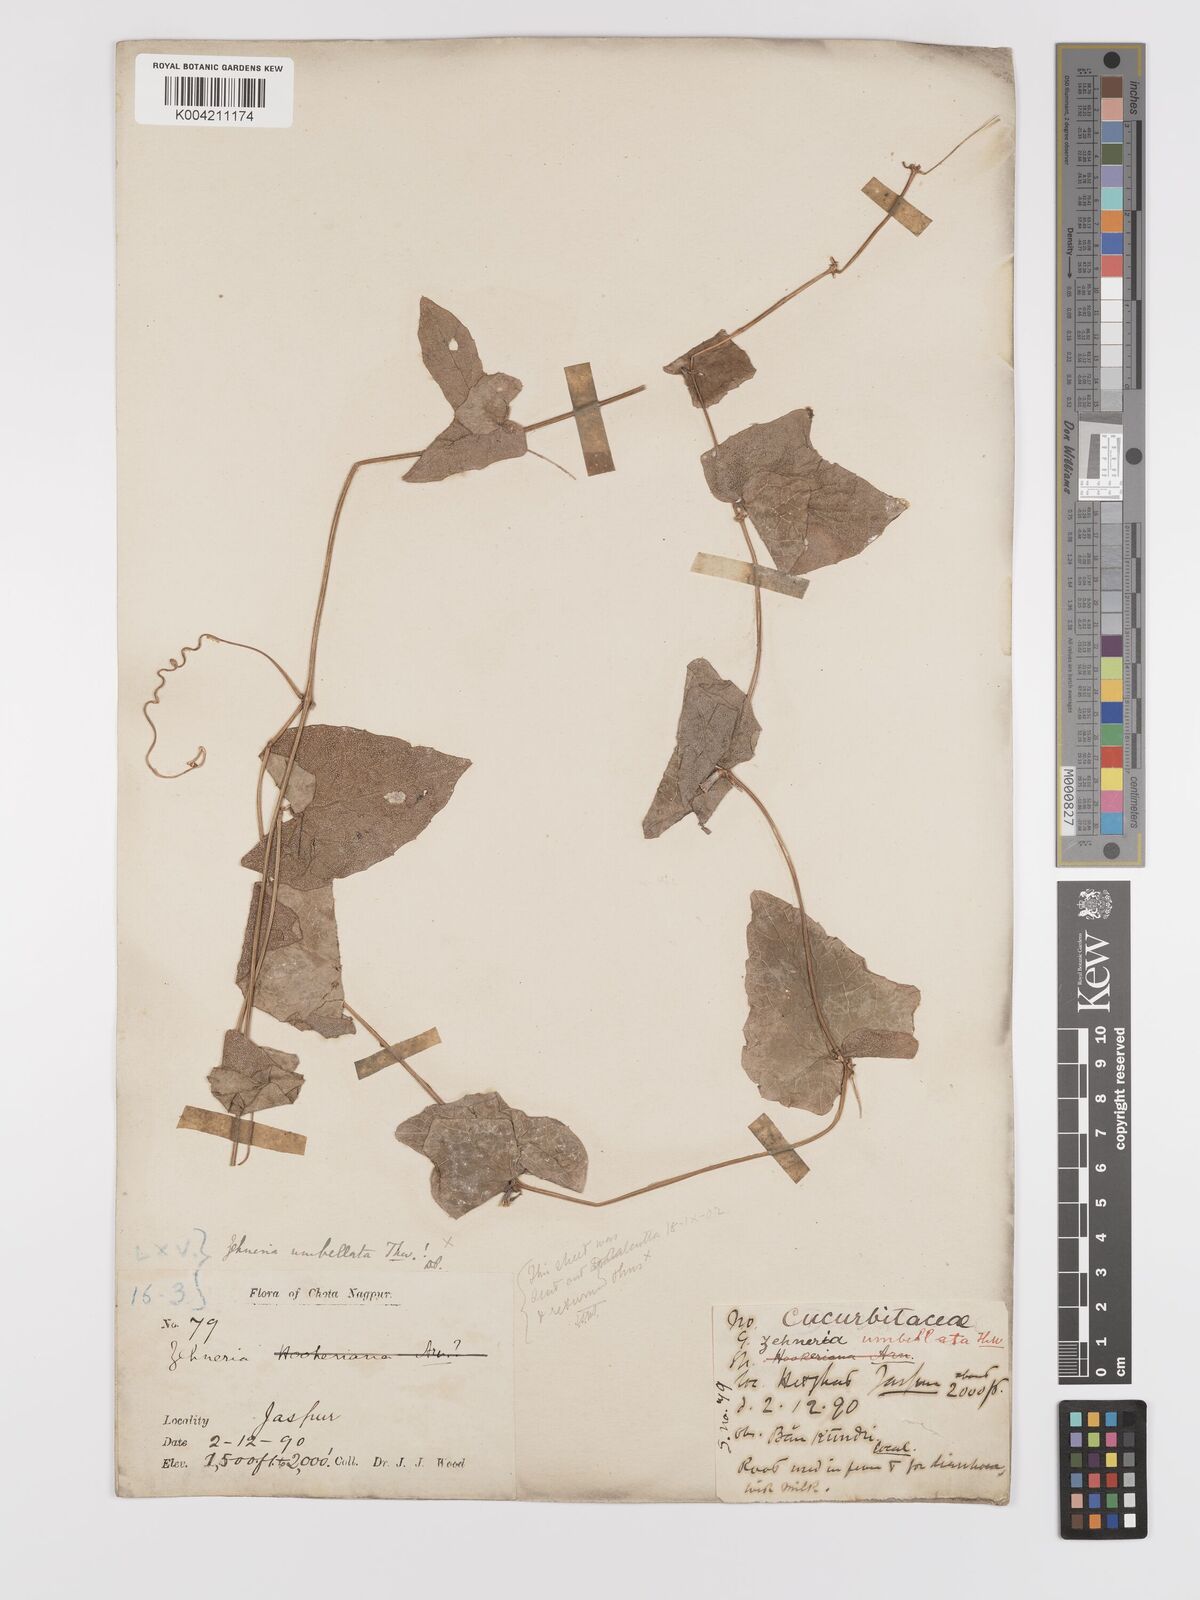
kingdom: Plantae
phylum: Tracheophyta
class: Magnoliopsida
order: Cucurbitales
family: Cucurbitaceae
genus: Solena
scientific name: Solena amplexicaulis
